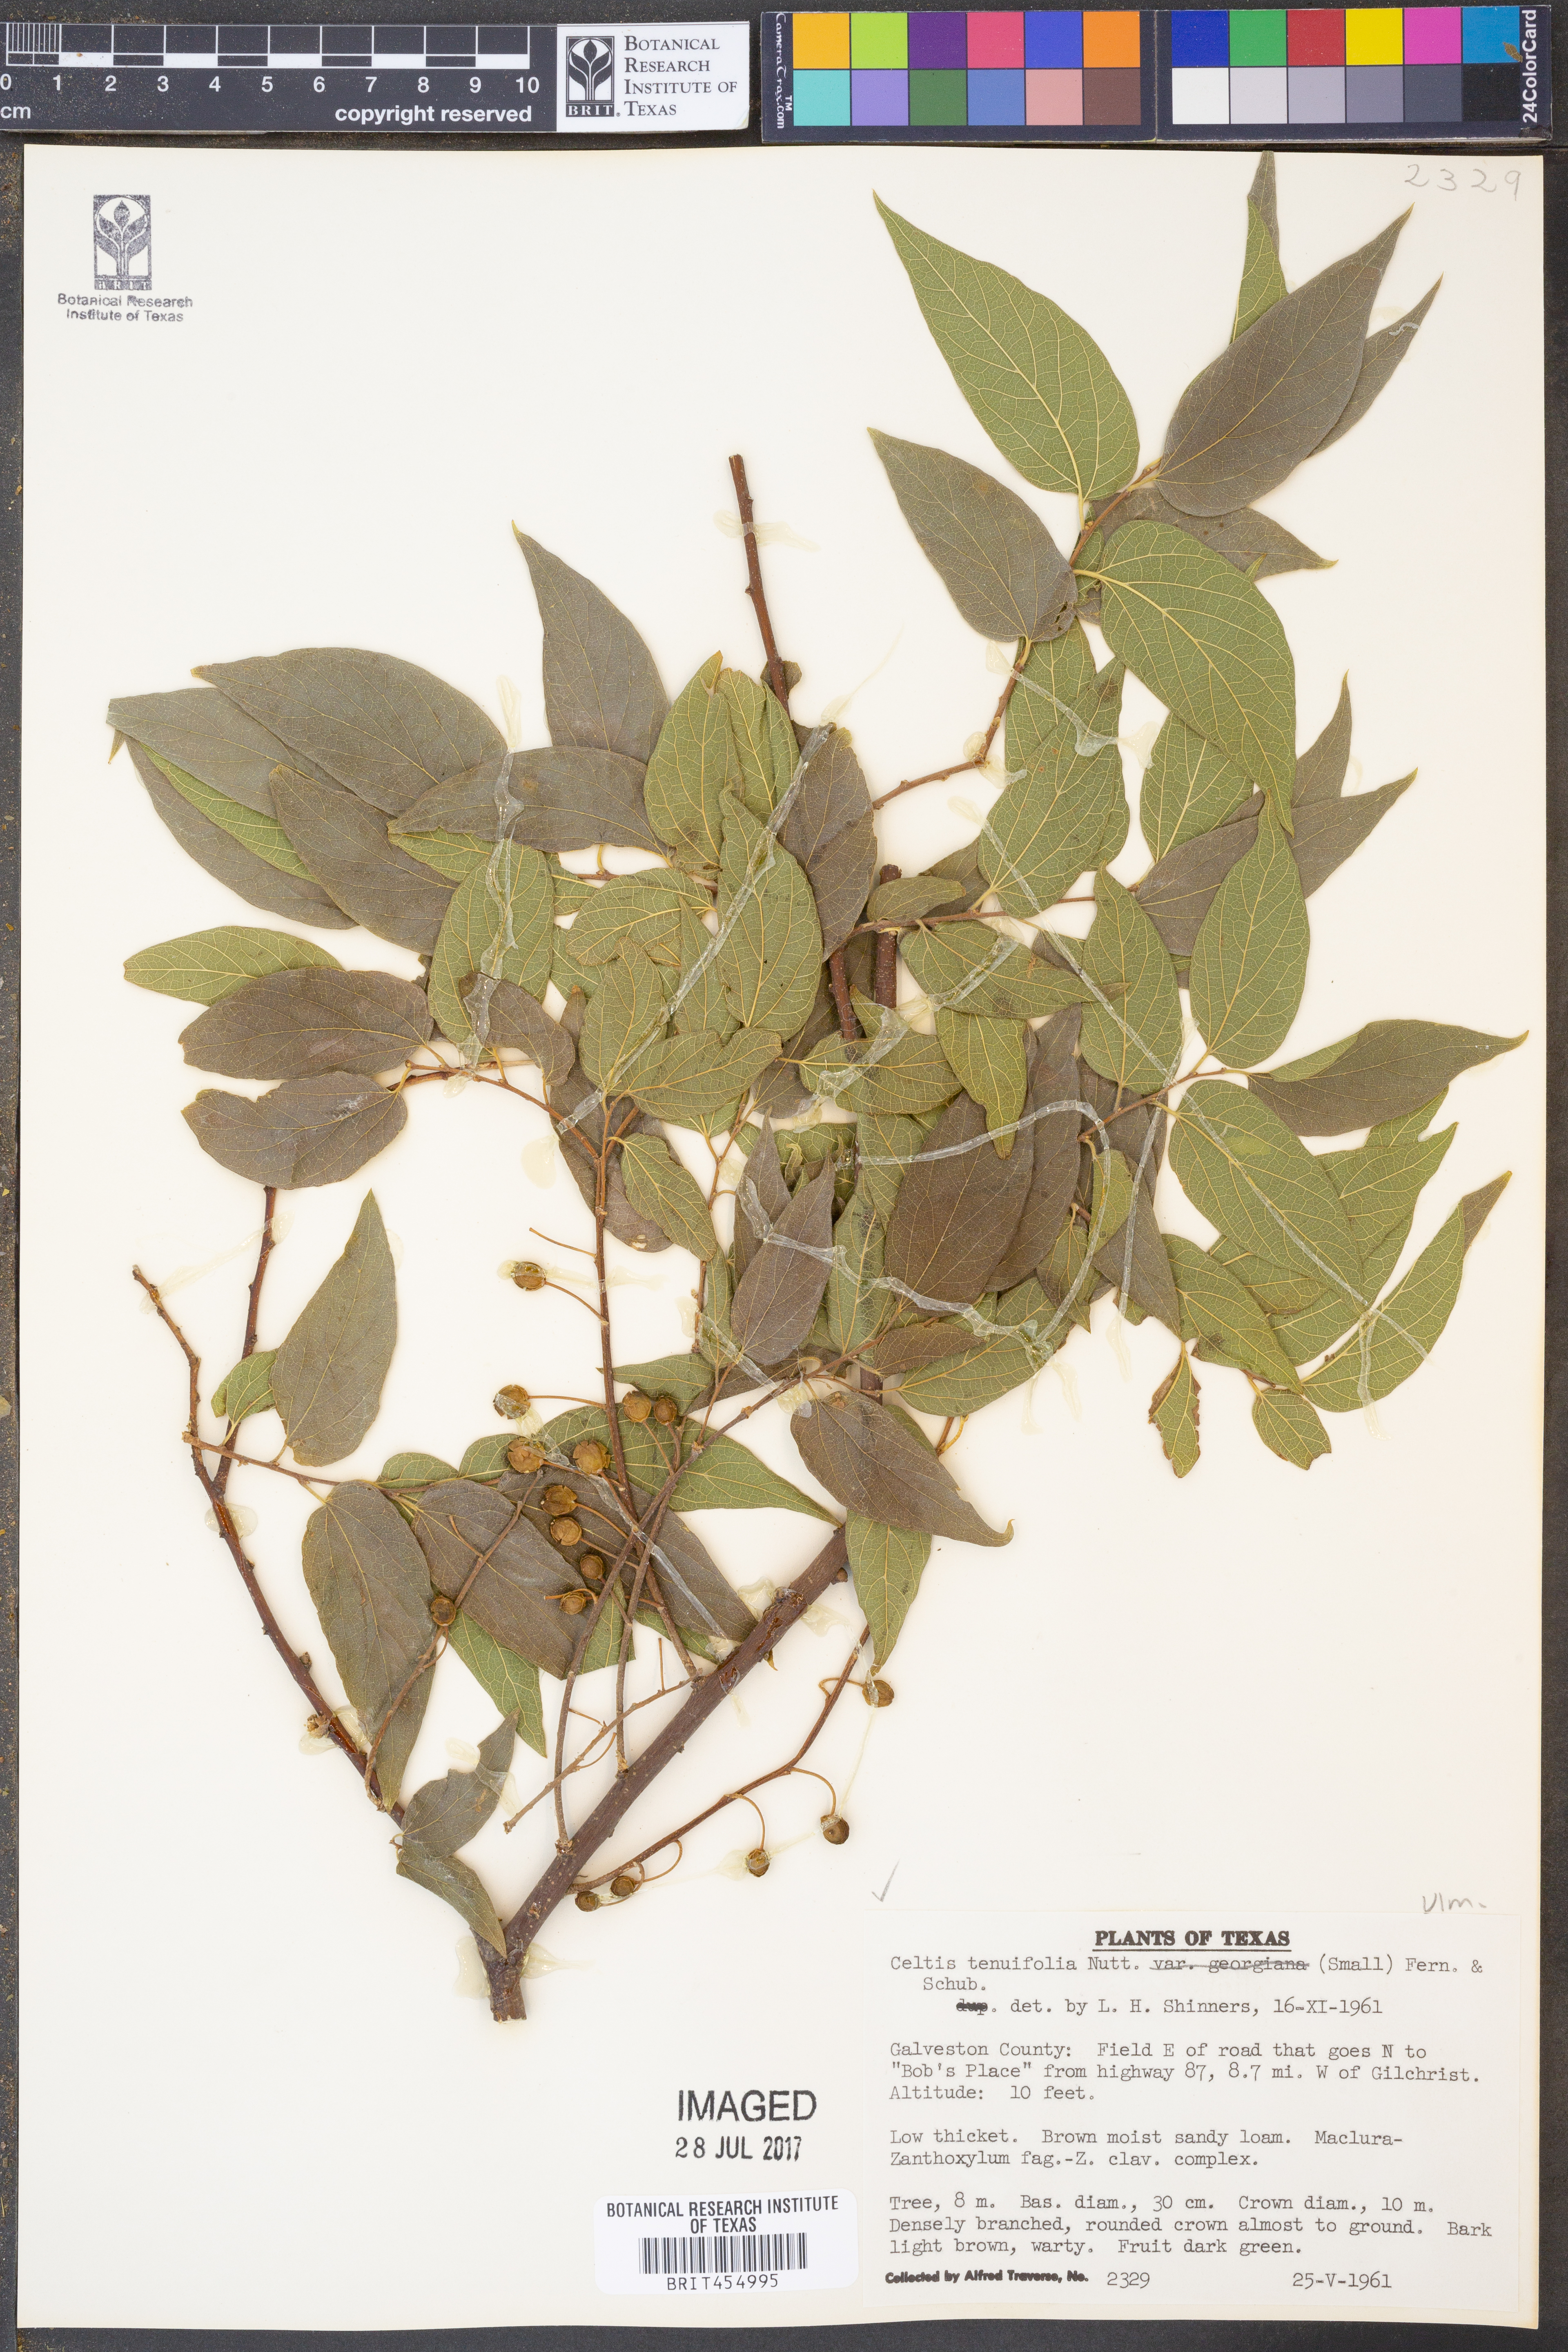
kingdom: Plantae
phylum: Tracheophyta
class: Magnoliopsida
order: Rosales
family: Cannabaceae
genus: Celtis
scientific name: Celtis tenuifolia
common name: Georgia hackberry
